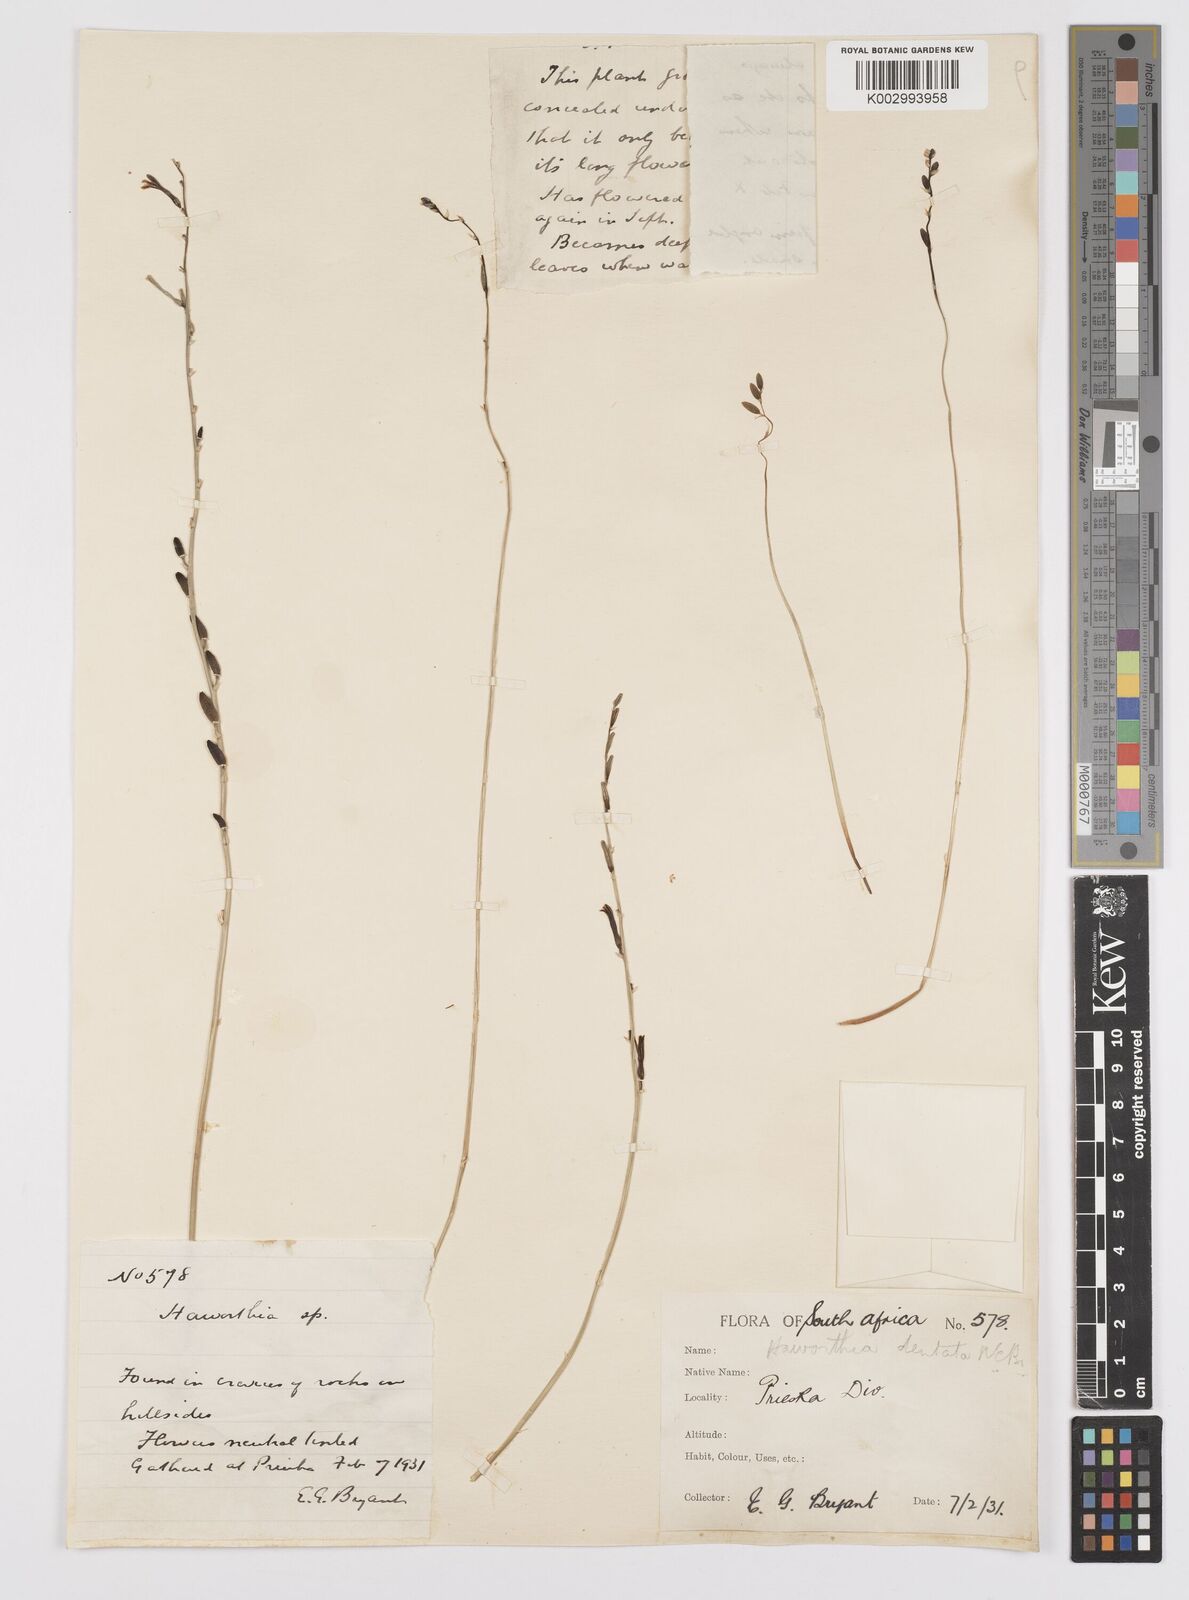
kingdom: Plantae
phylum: Tracheophyta
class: Liliopsida
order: Asparagales
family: Asphodelaceae
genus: Haworthia
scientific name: Haworthia floribunda
